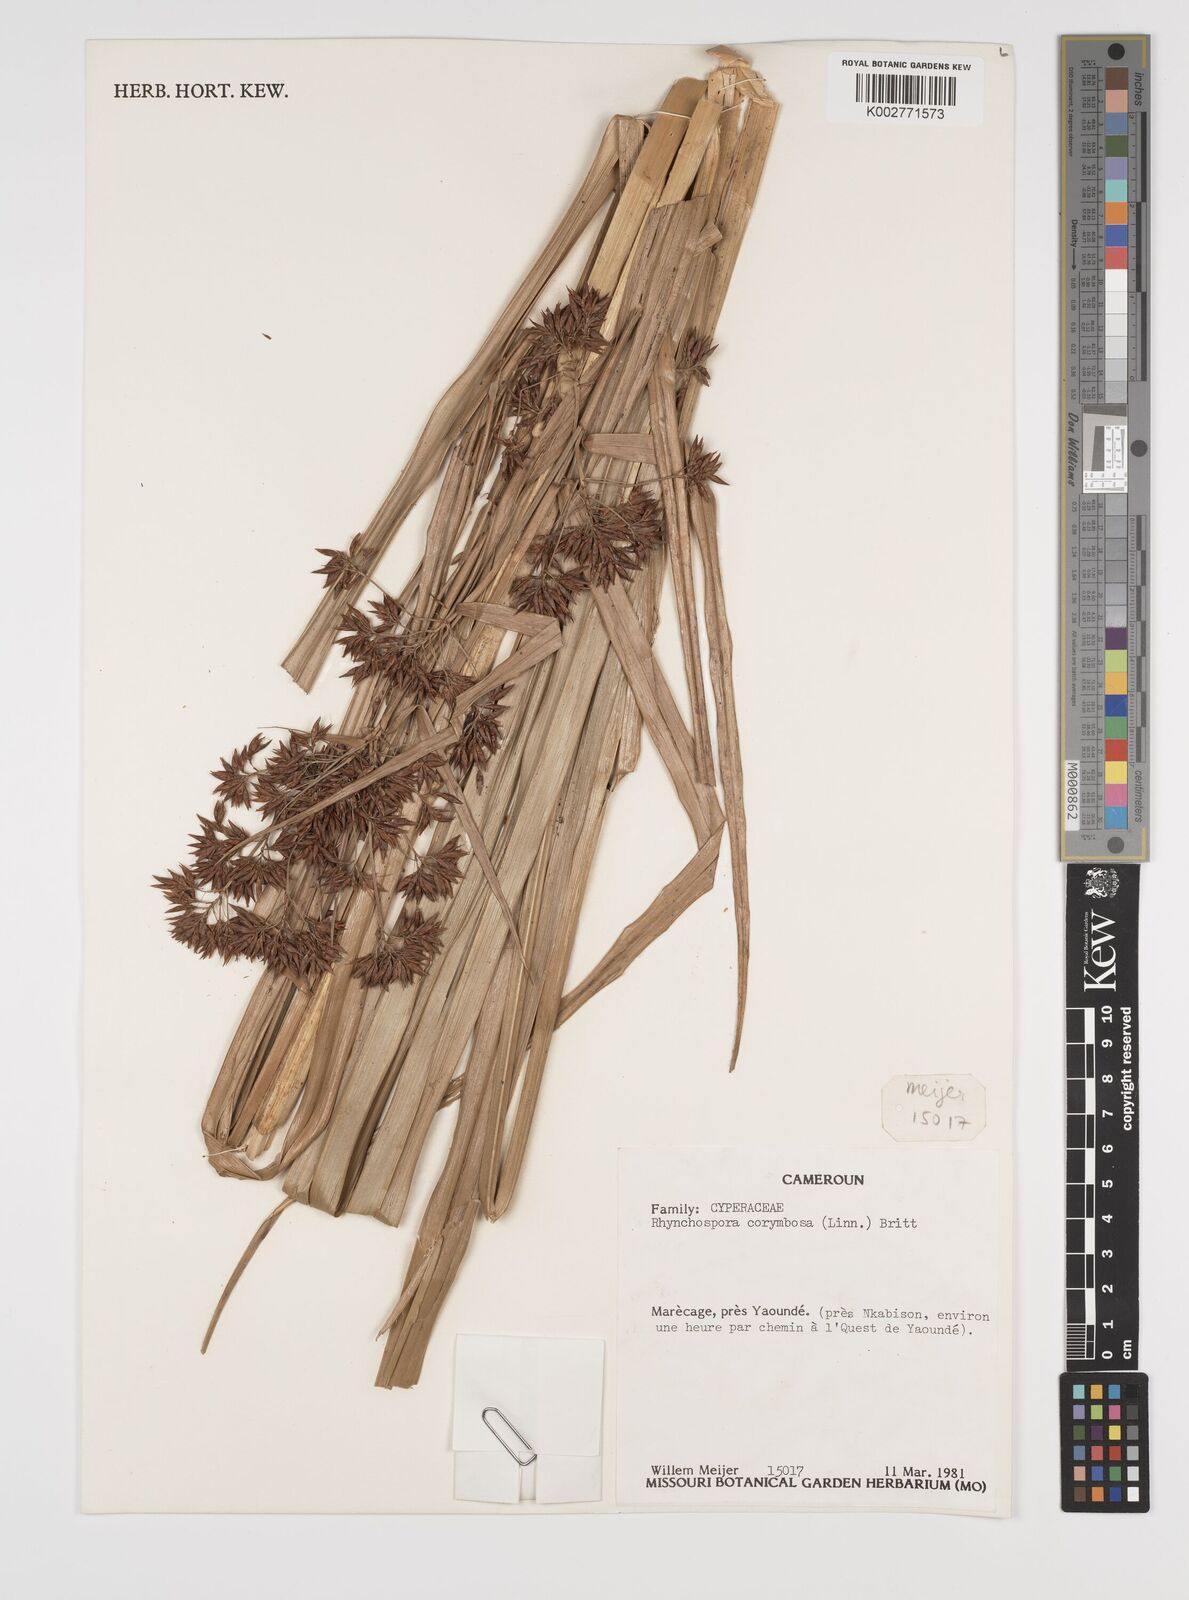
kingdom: Plantae
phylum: Tracheophyta
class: Liliopsida
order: Poales
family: Cyperaceae
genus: Rhynchospora
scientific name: Rhynchospora corymbosa
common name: Golden beak sedge
